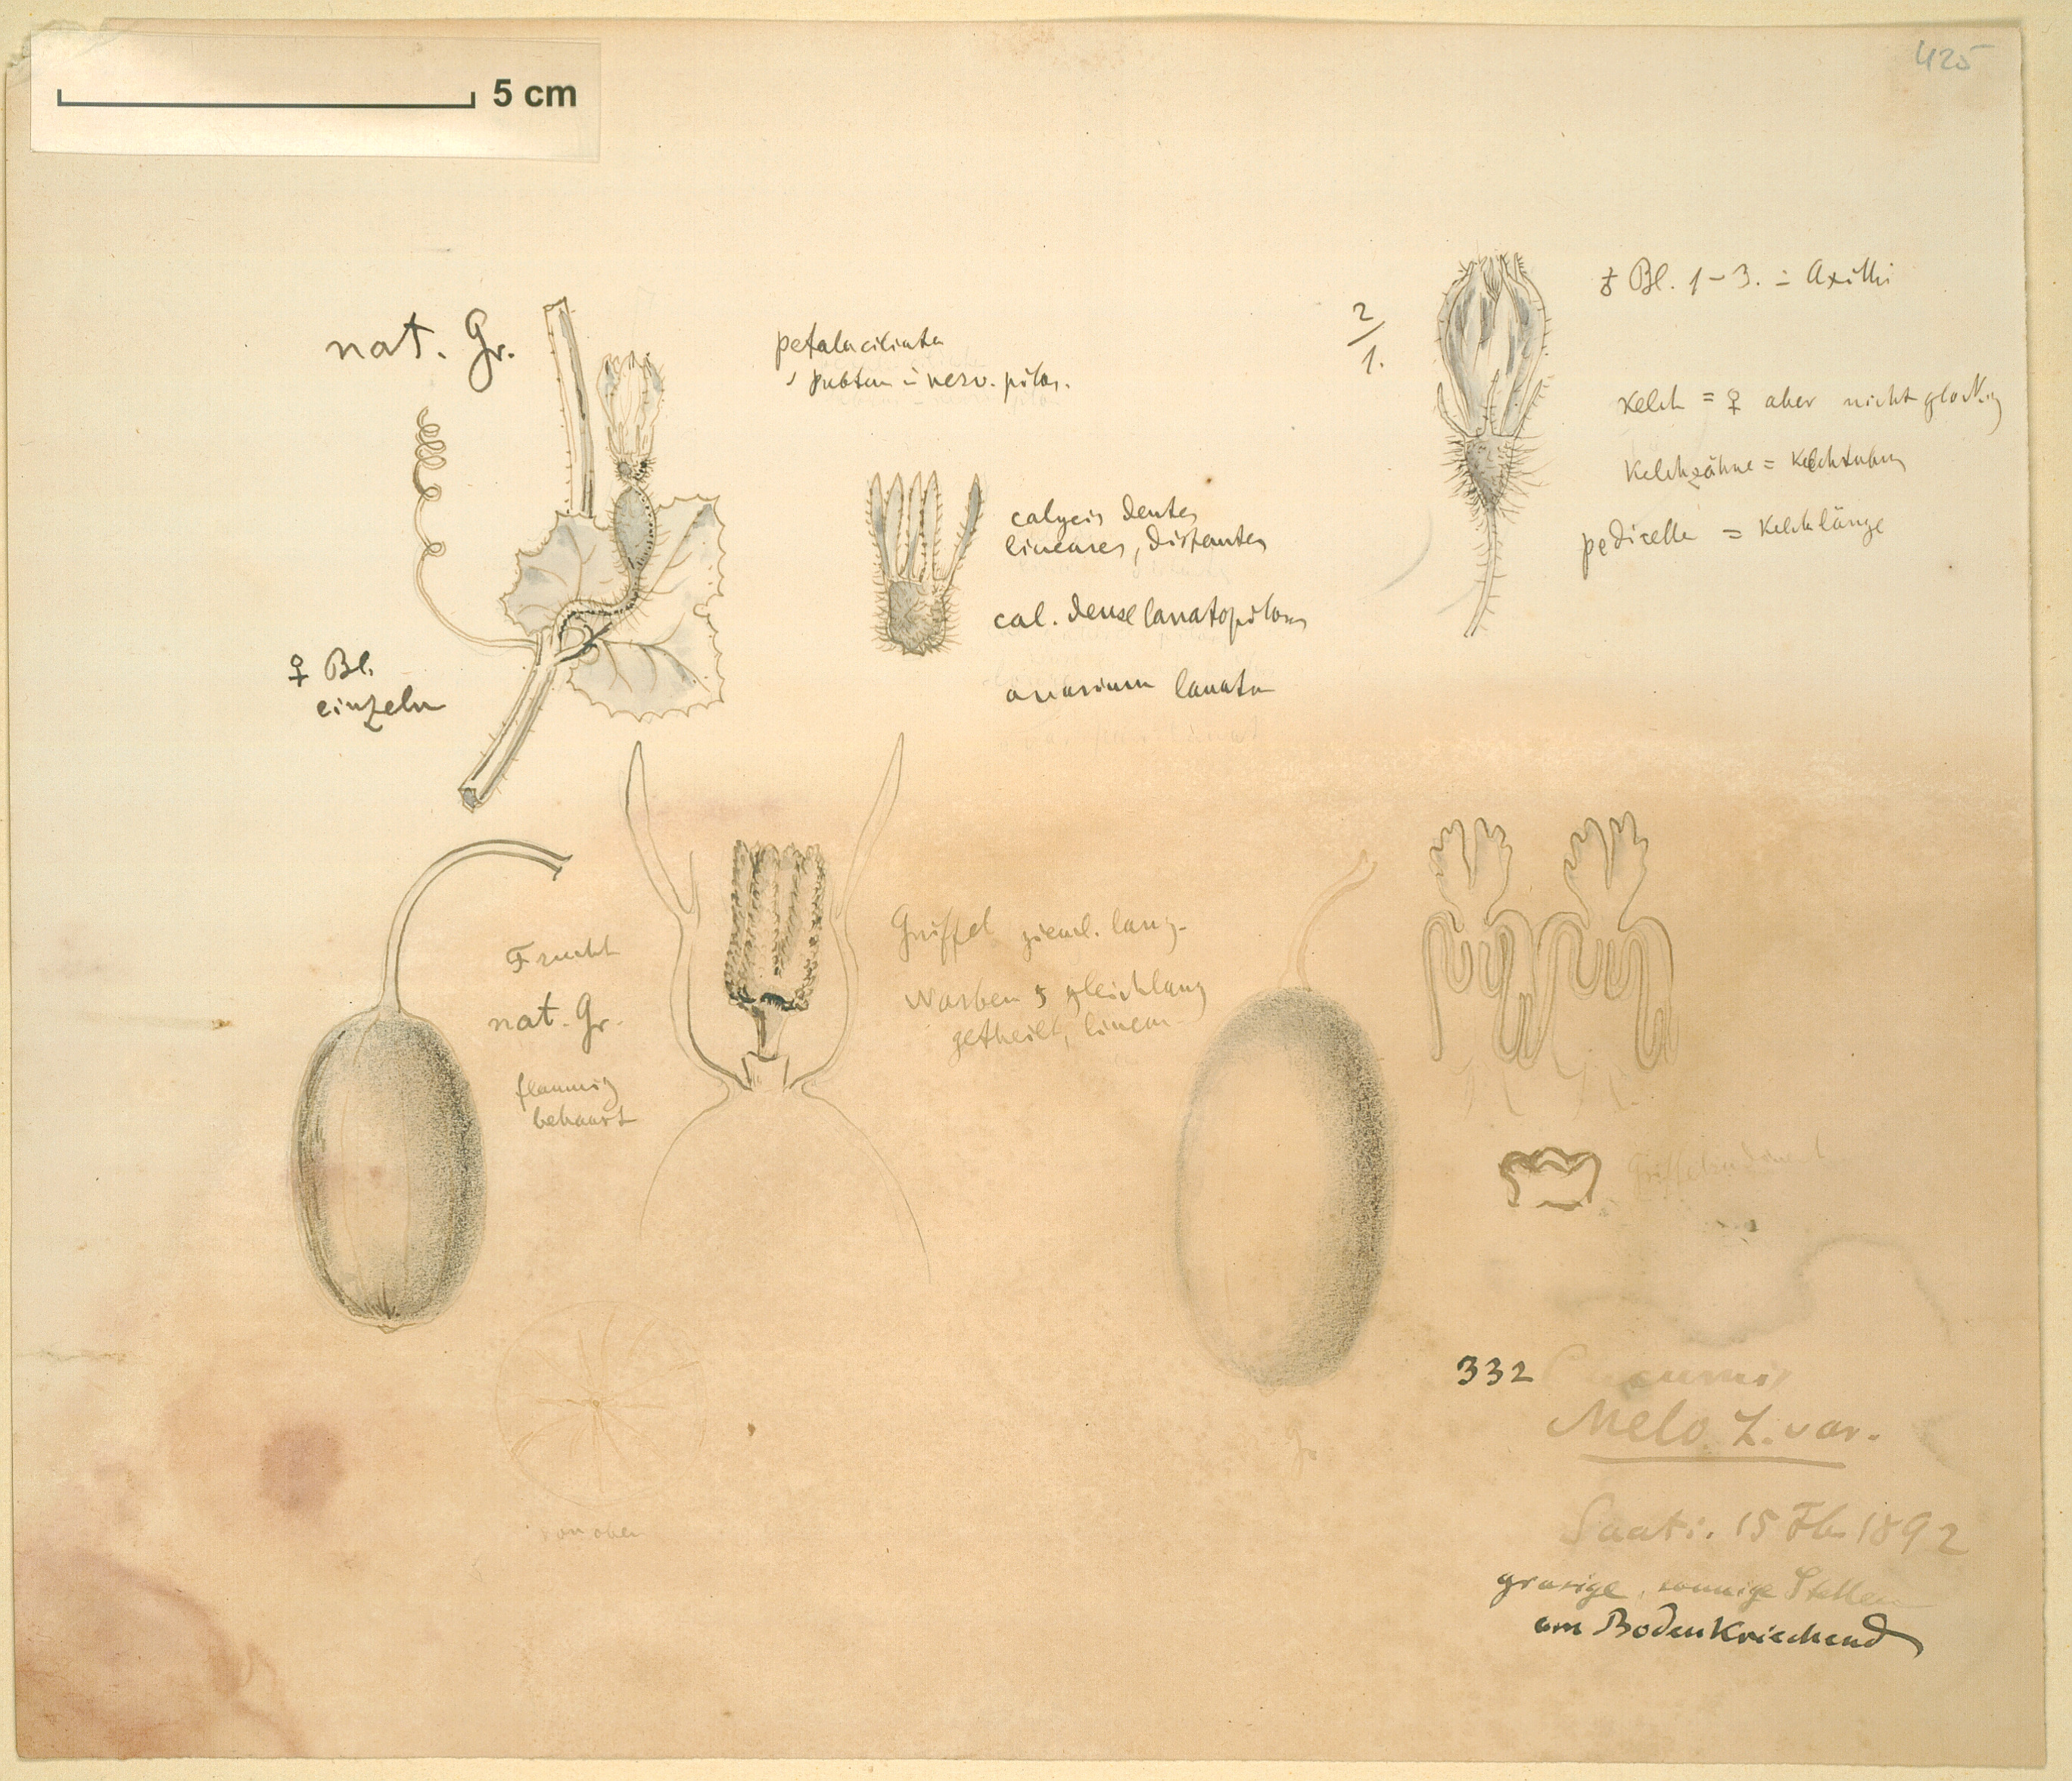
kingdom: Plantae
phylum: Tracheophyta
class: Magnoliopsida
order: Cucurbitales
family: Cucurbitaceae
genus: Cucumis
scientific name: Cucumis melo
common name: Melon
